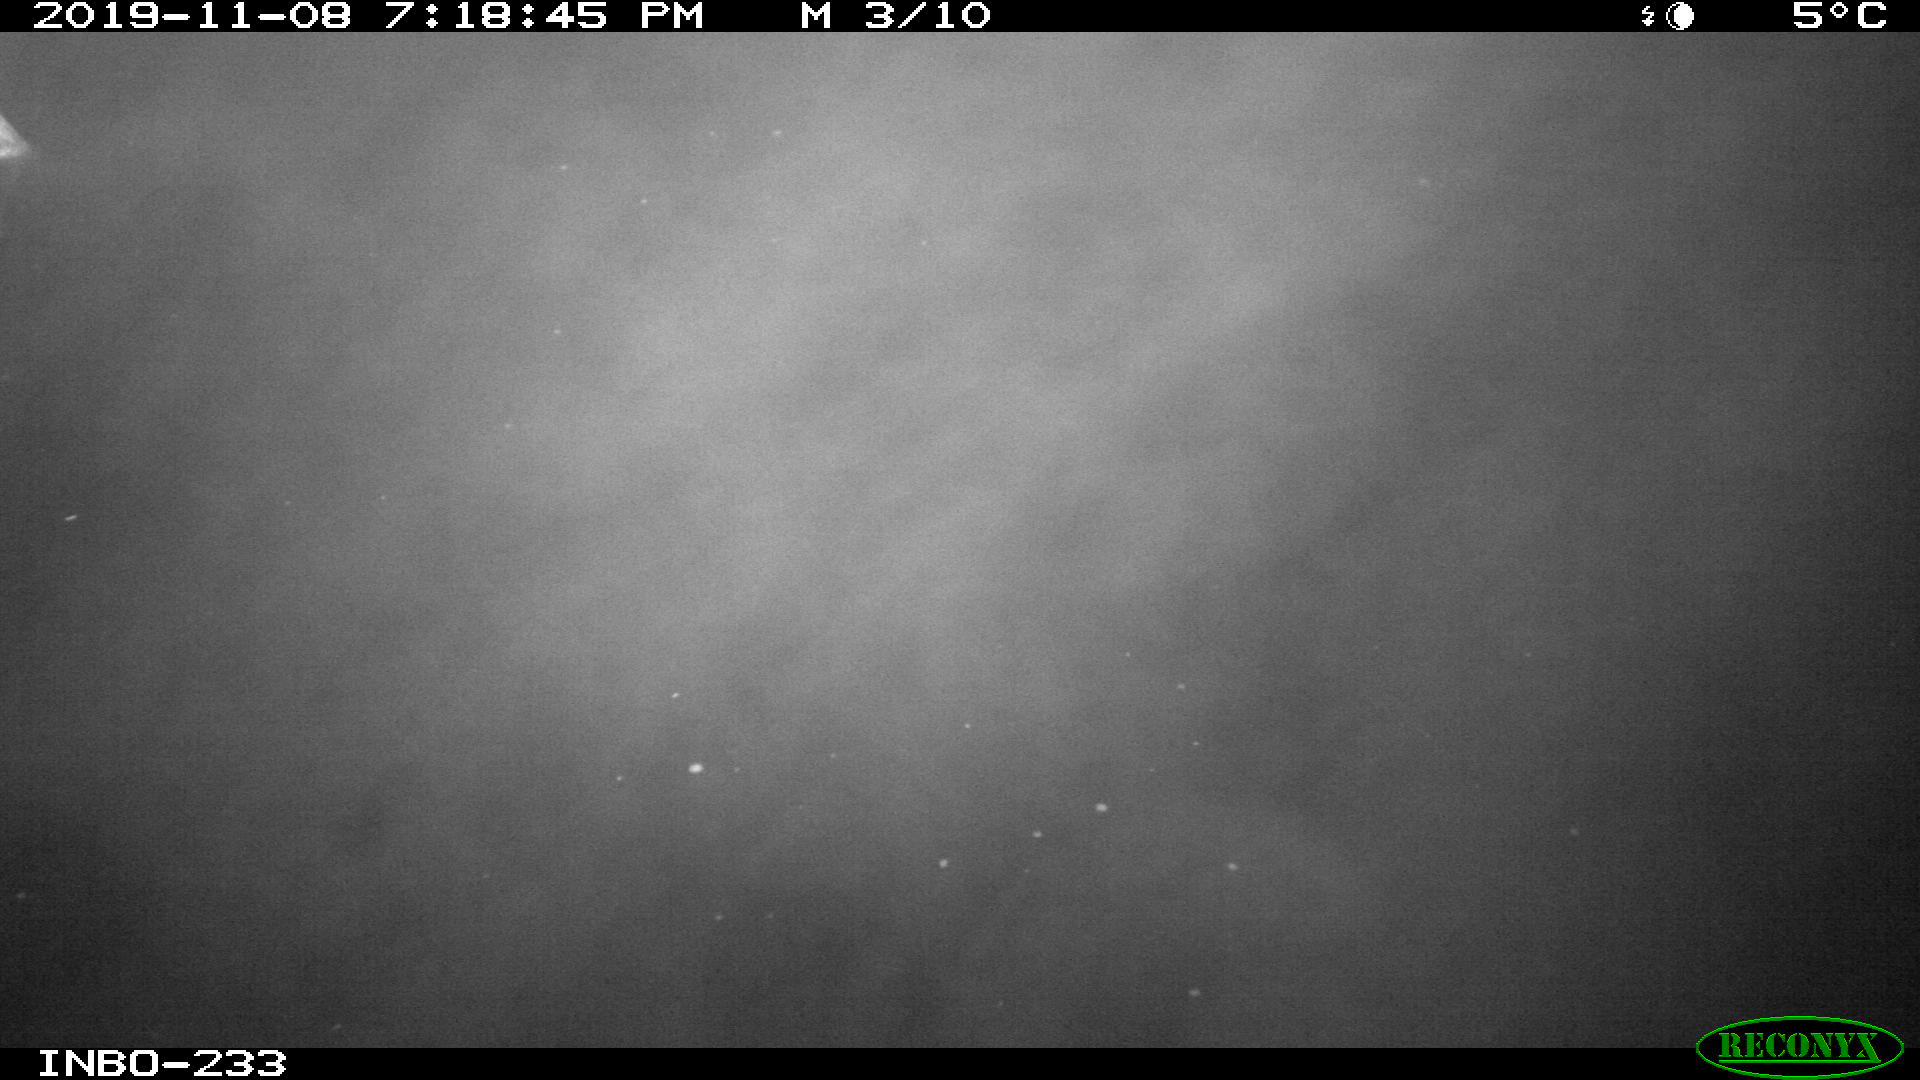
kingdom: Animalia
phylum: Chordata
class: Aves
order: Anseriformes
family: Anatidae
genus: Anas
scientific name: Anas platyrhynchos
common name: Mallard
